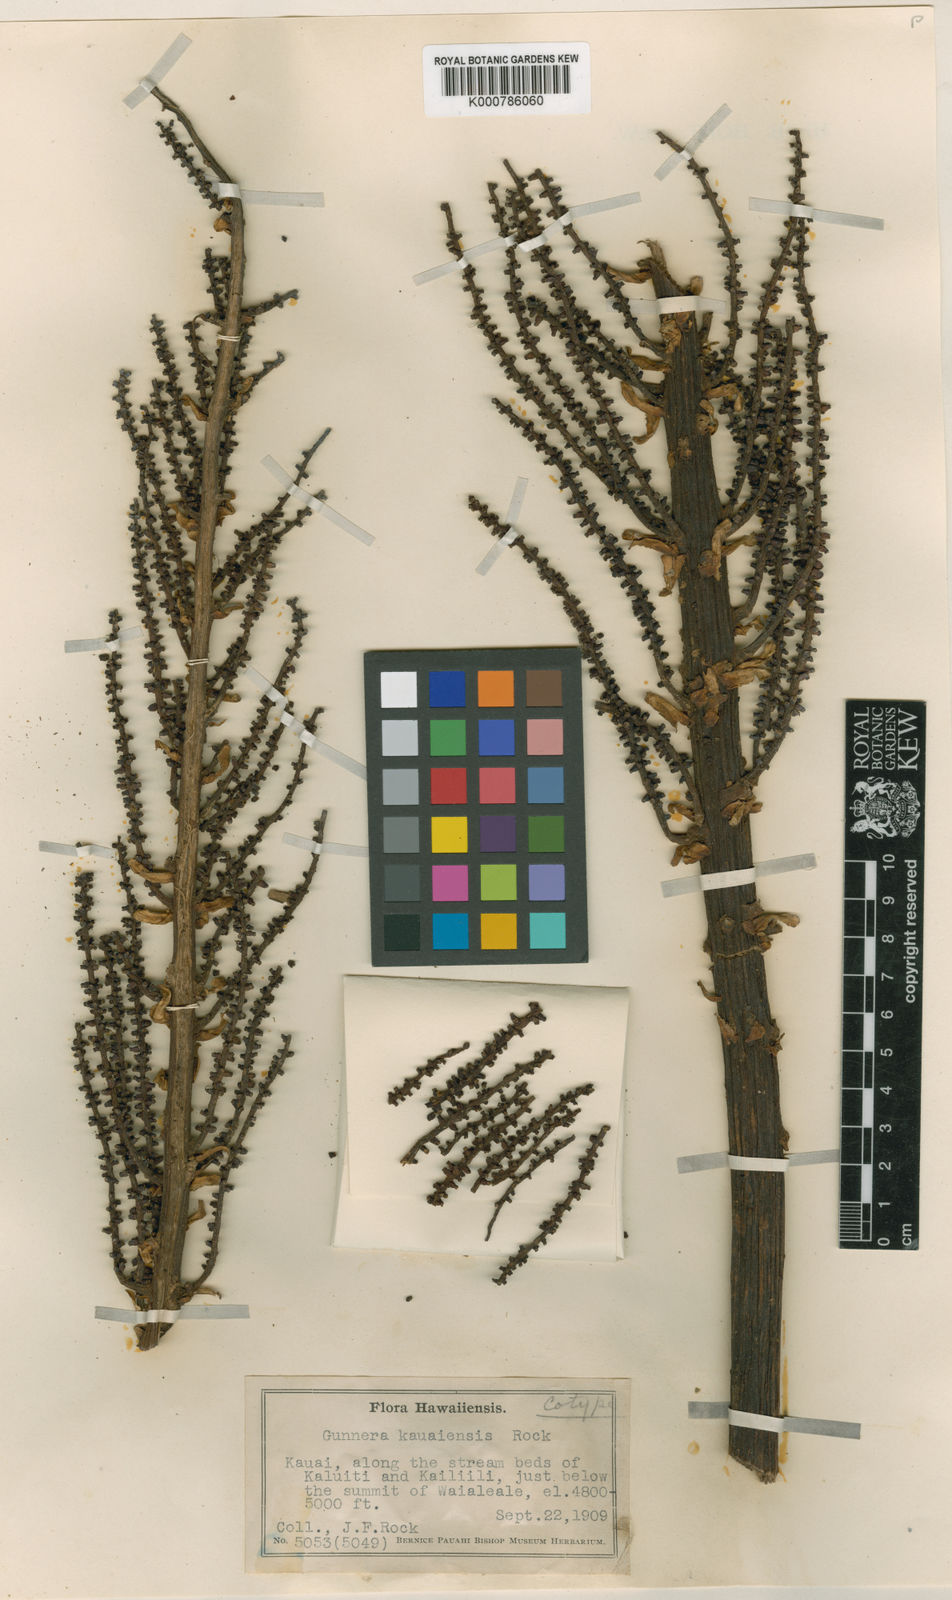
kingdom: Plantae
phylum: Tracheophyta
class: Magnoliopsida
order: Gunnerales
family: Gunneraceae
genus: Gunnera
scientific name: Gunnera kauaiensis
